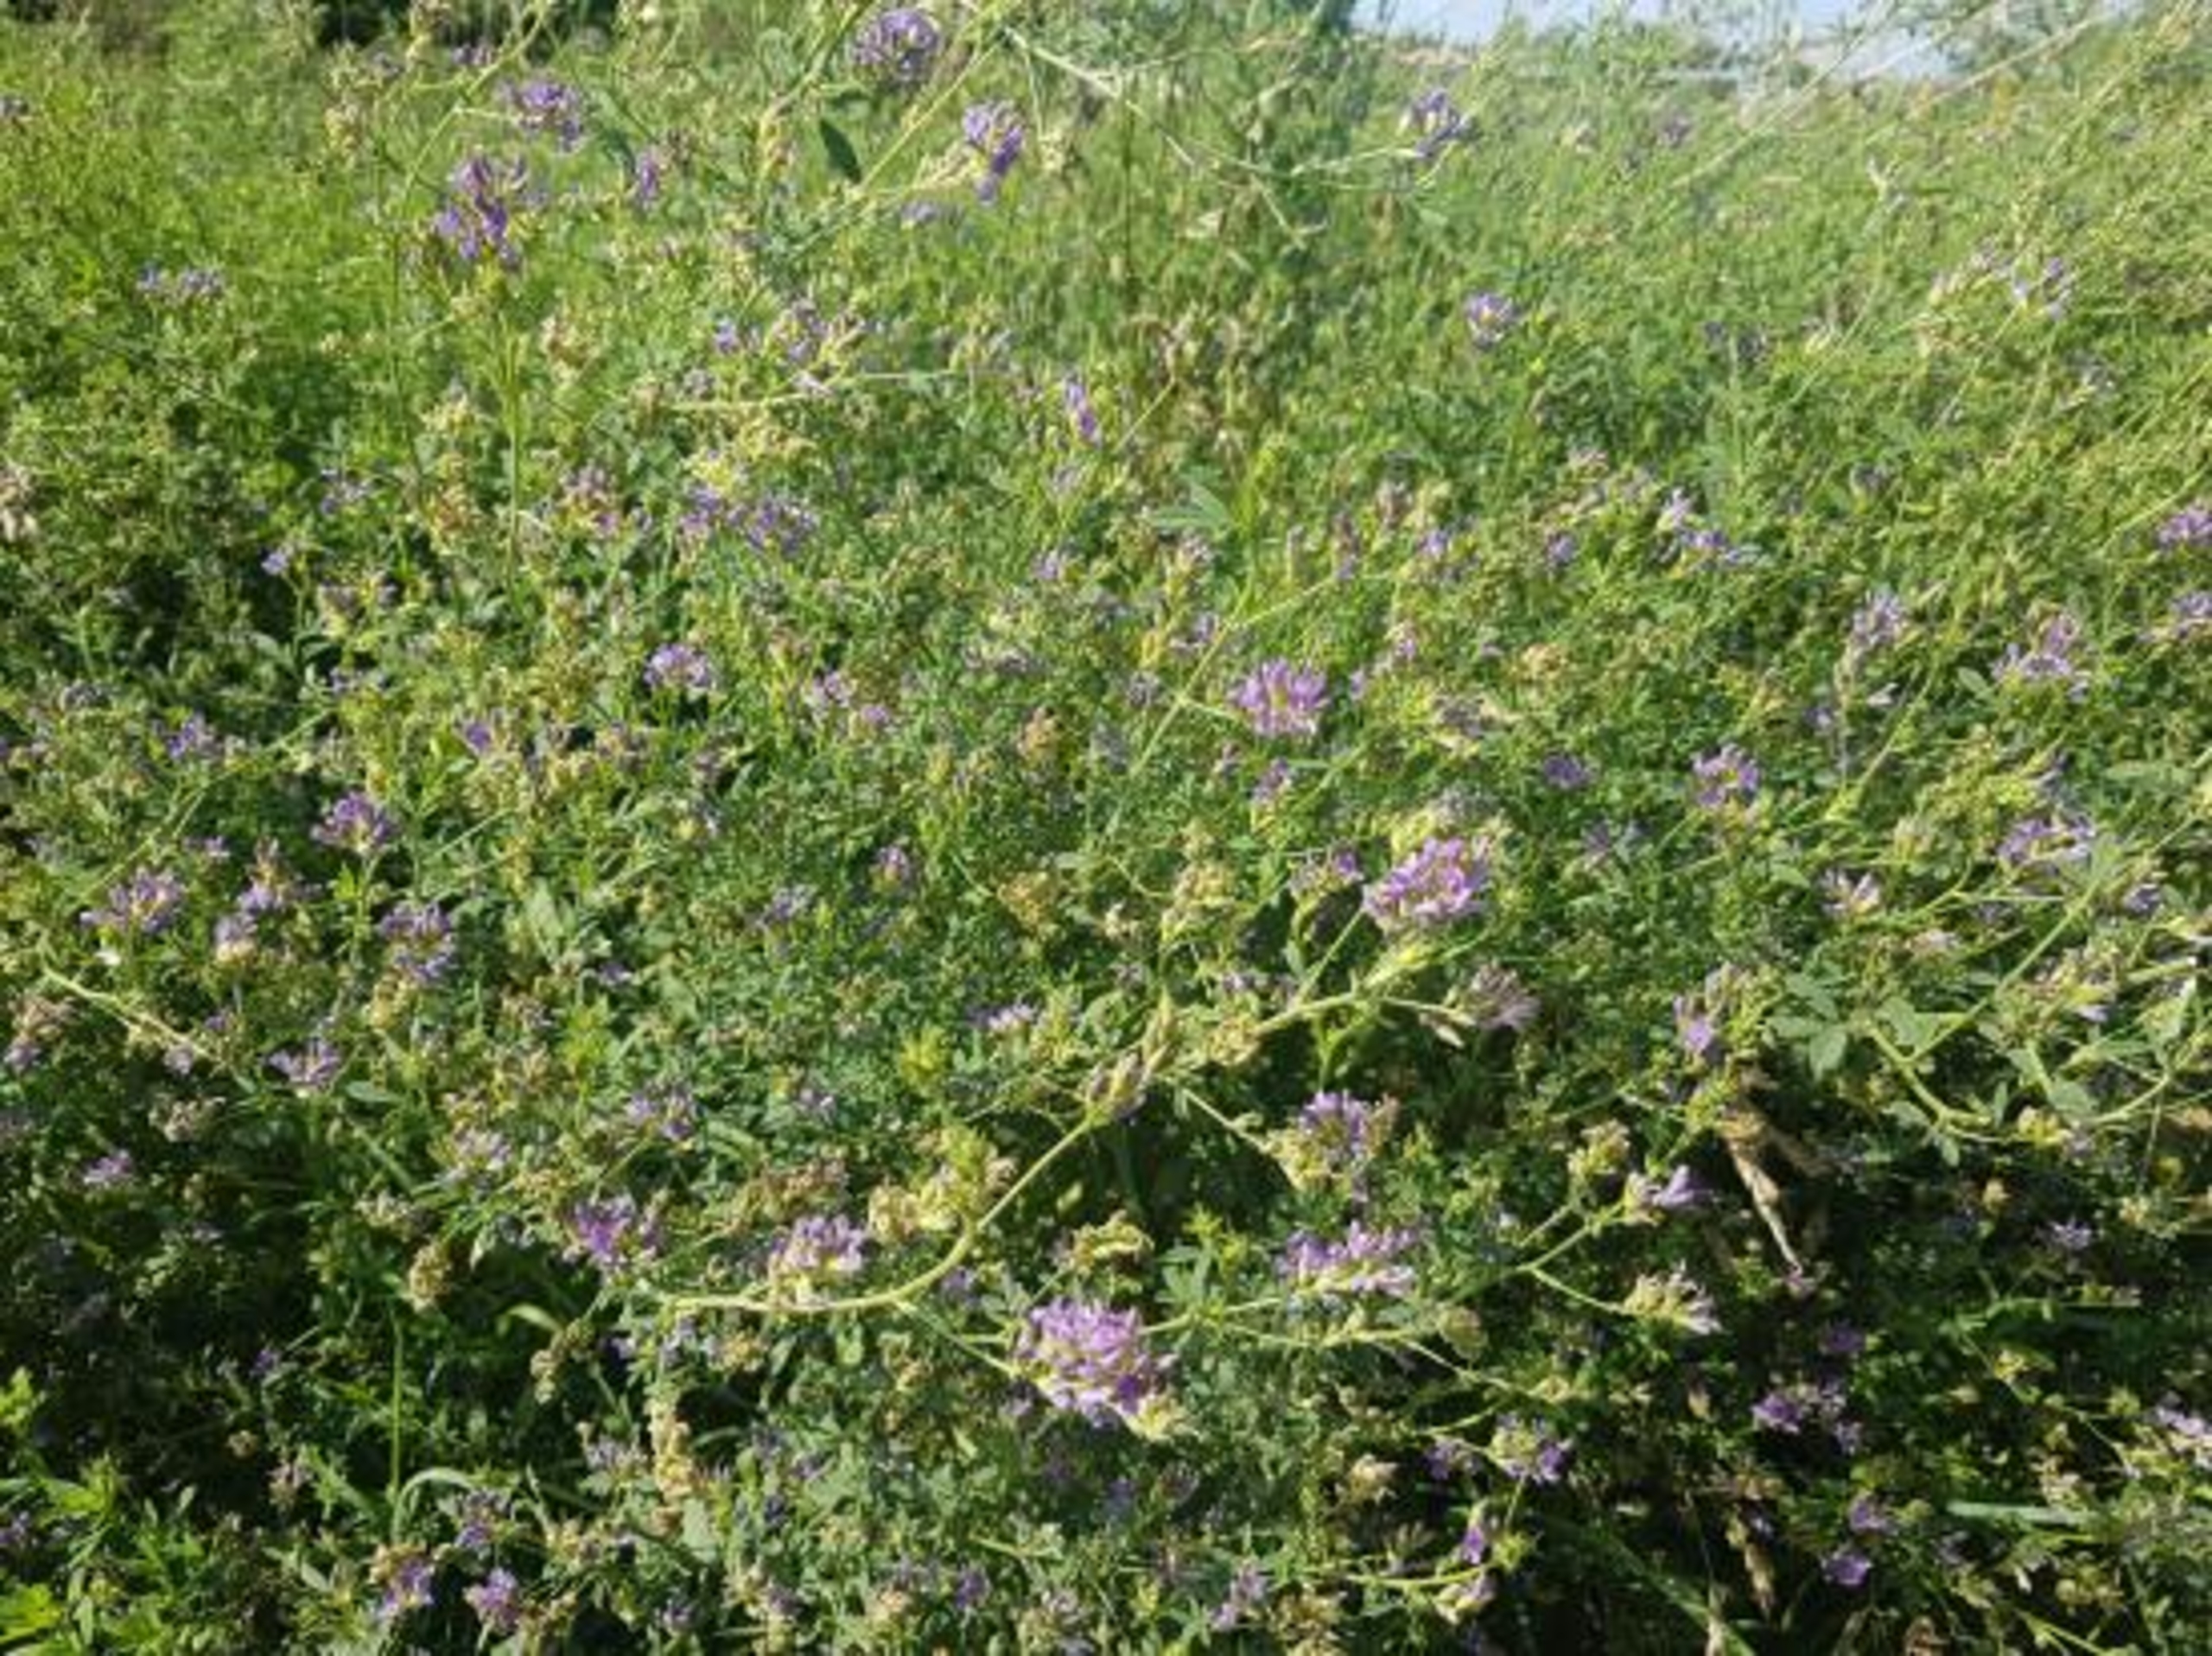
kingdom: Plantae
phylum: Tracheophyta
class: Magnoliopsida
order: Fabales
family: Fabaceae
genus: Medicago
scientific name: Medicago sativa
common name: Lucerne
